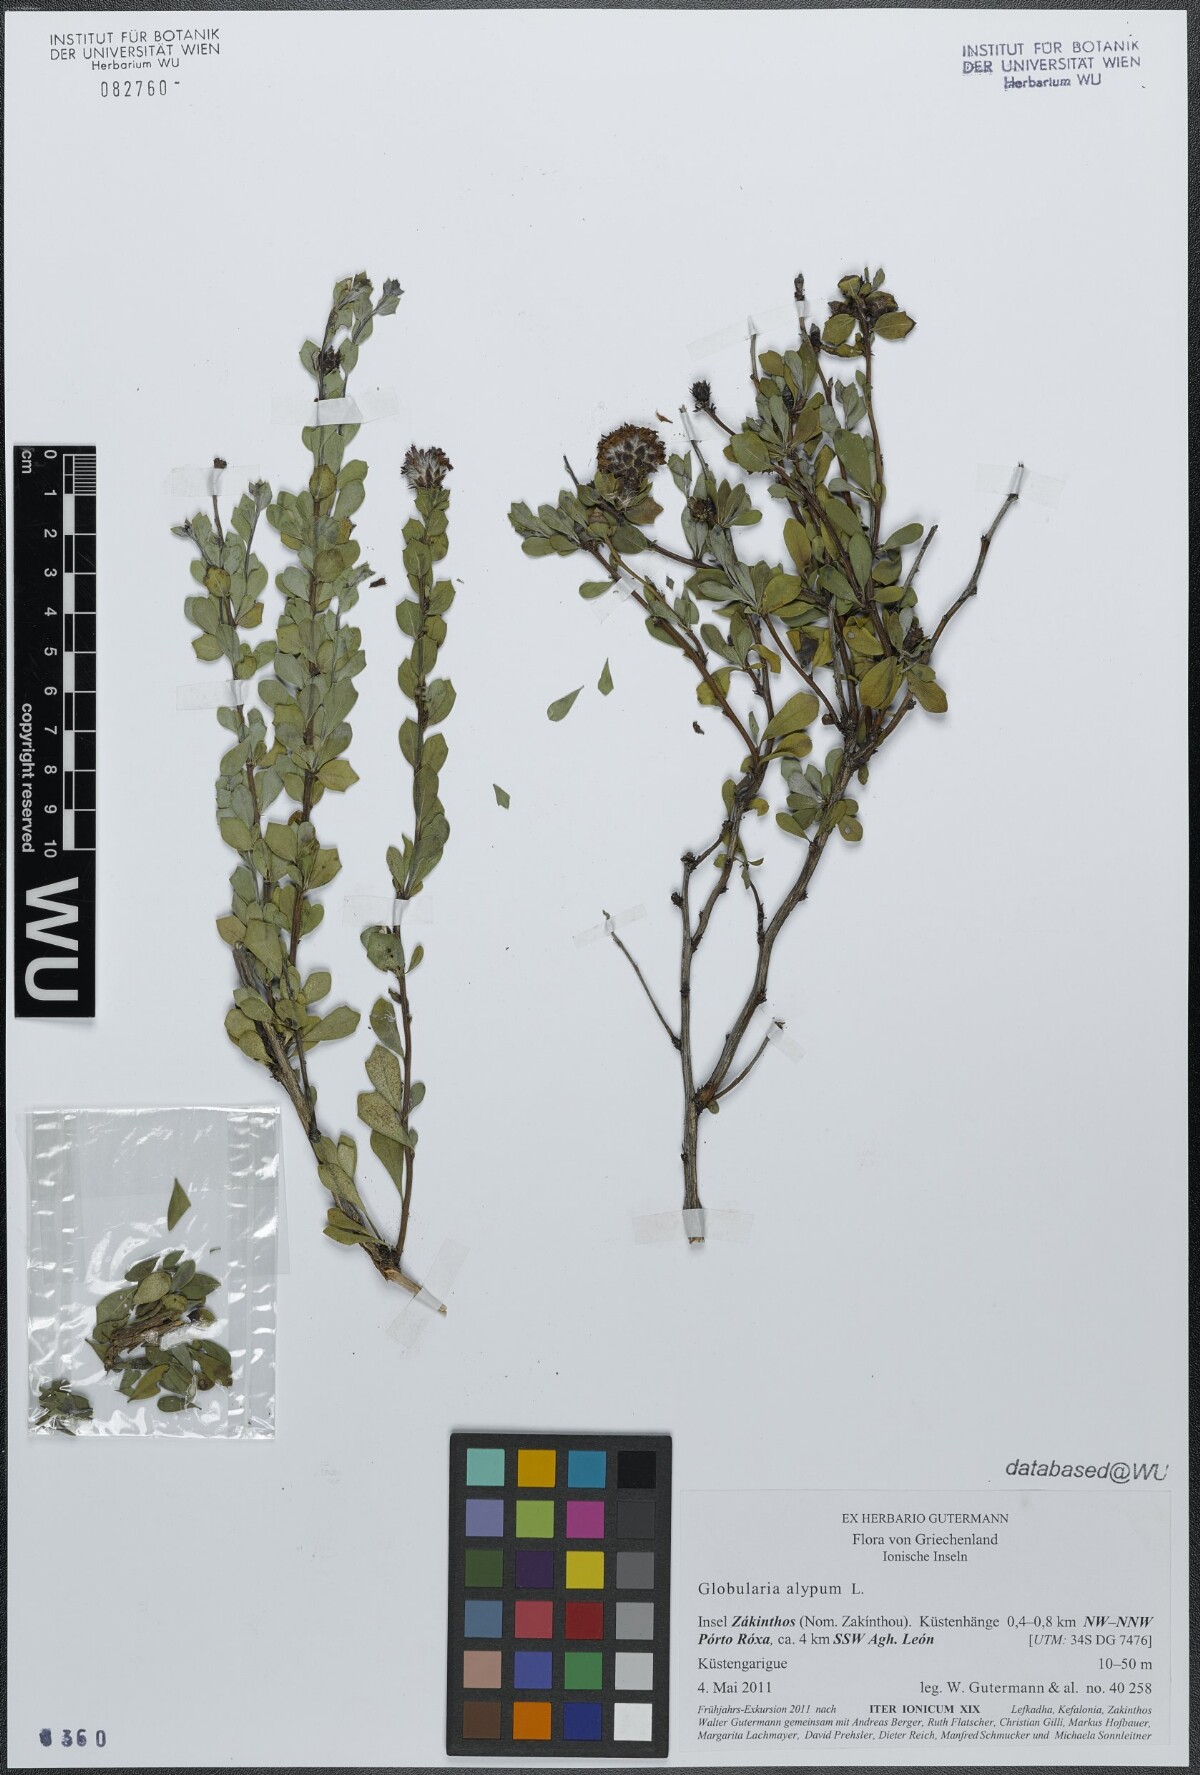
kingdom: Plantae
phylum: Tracheophyta
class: Magnoliopsida
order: Lamiales
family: Plantaginaceae
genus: Globularia
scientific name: Globularia alypum
